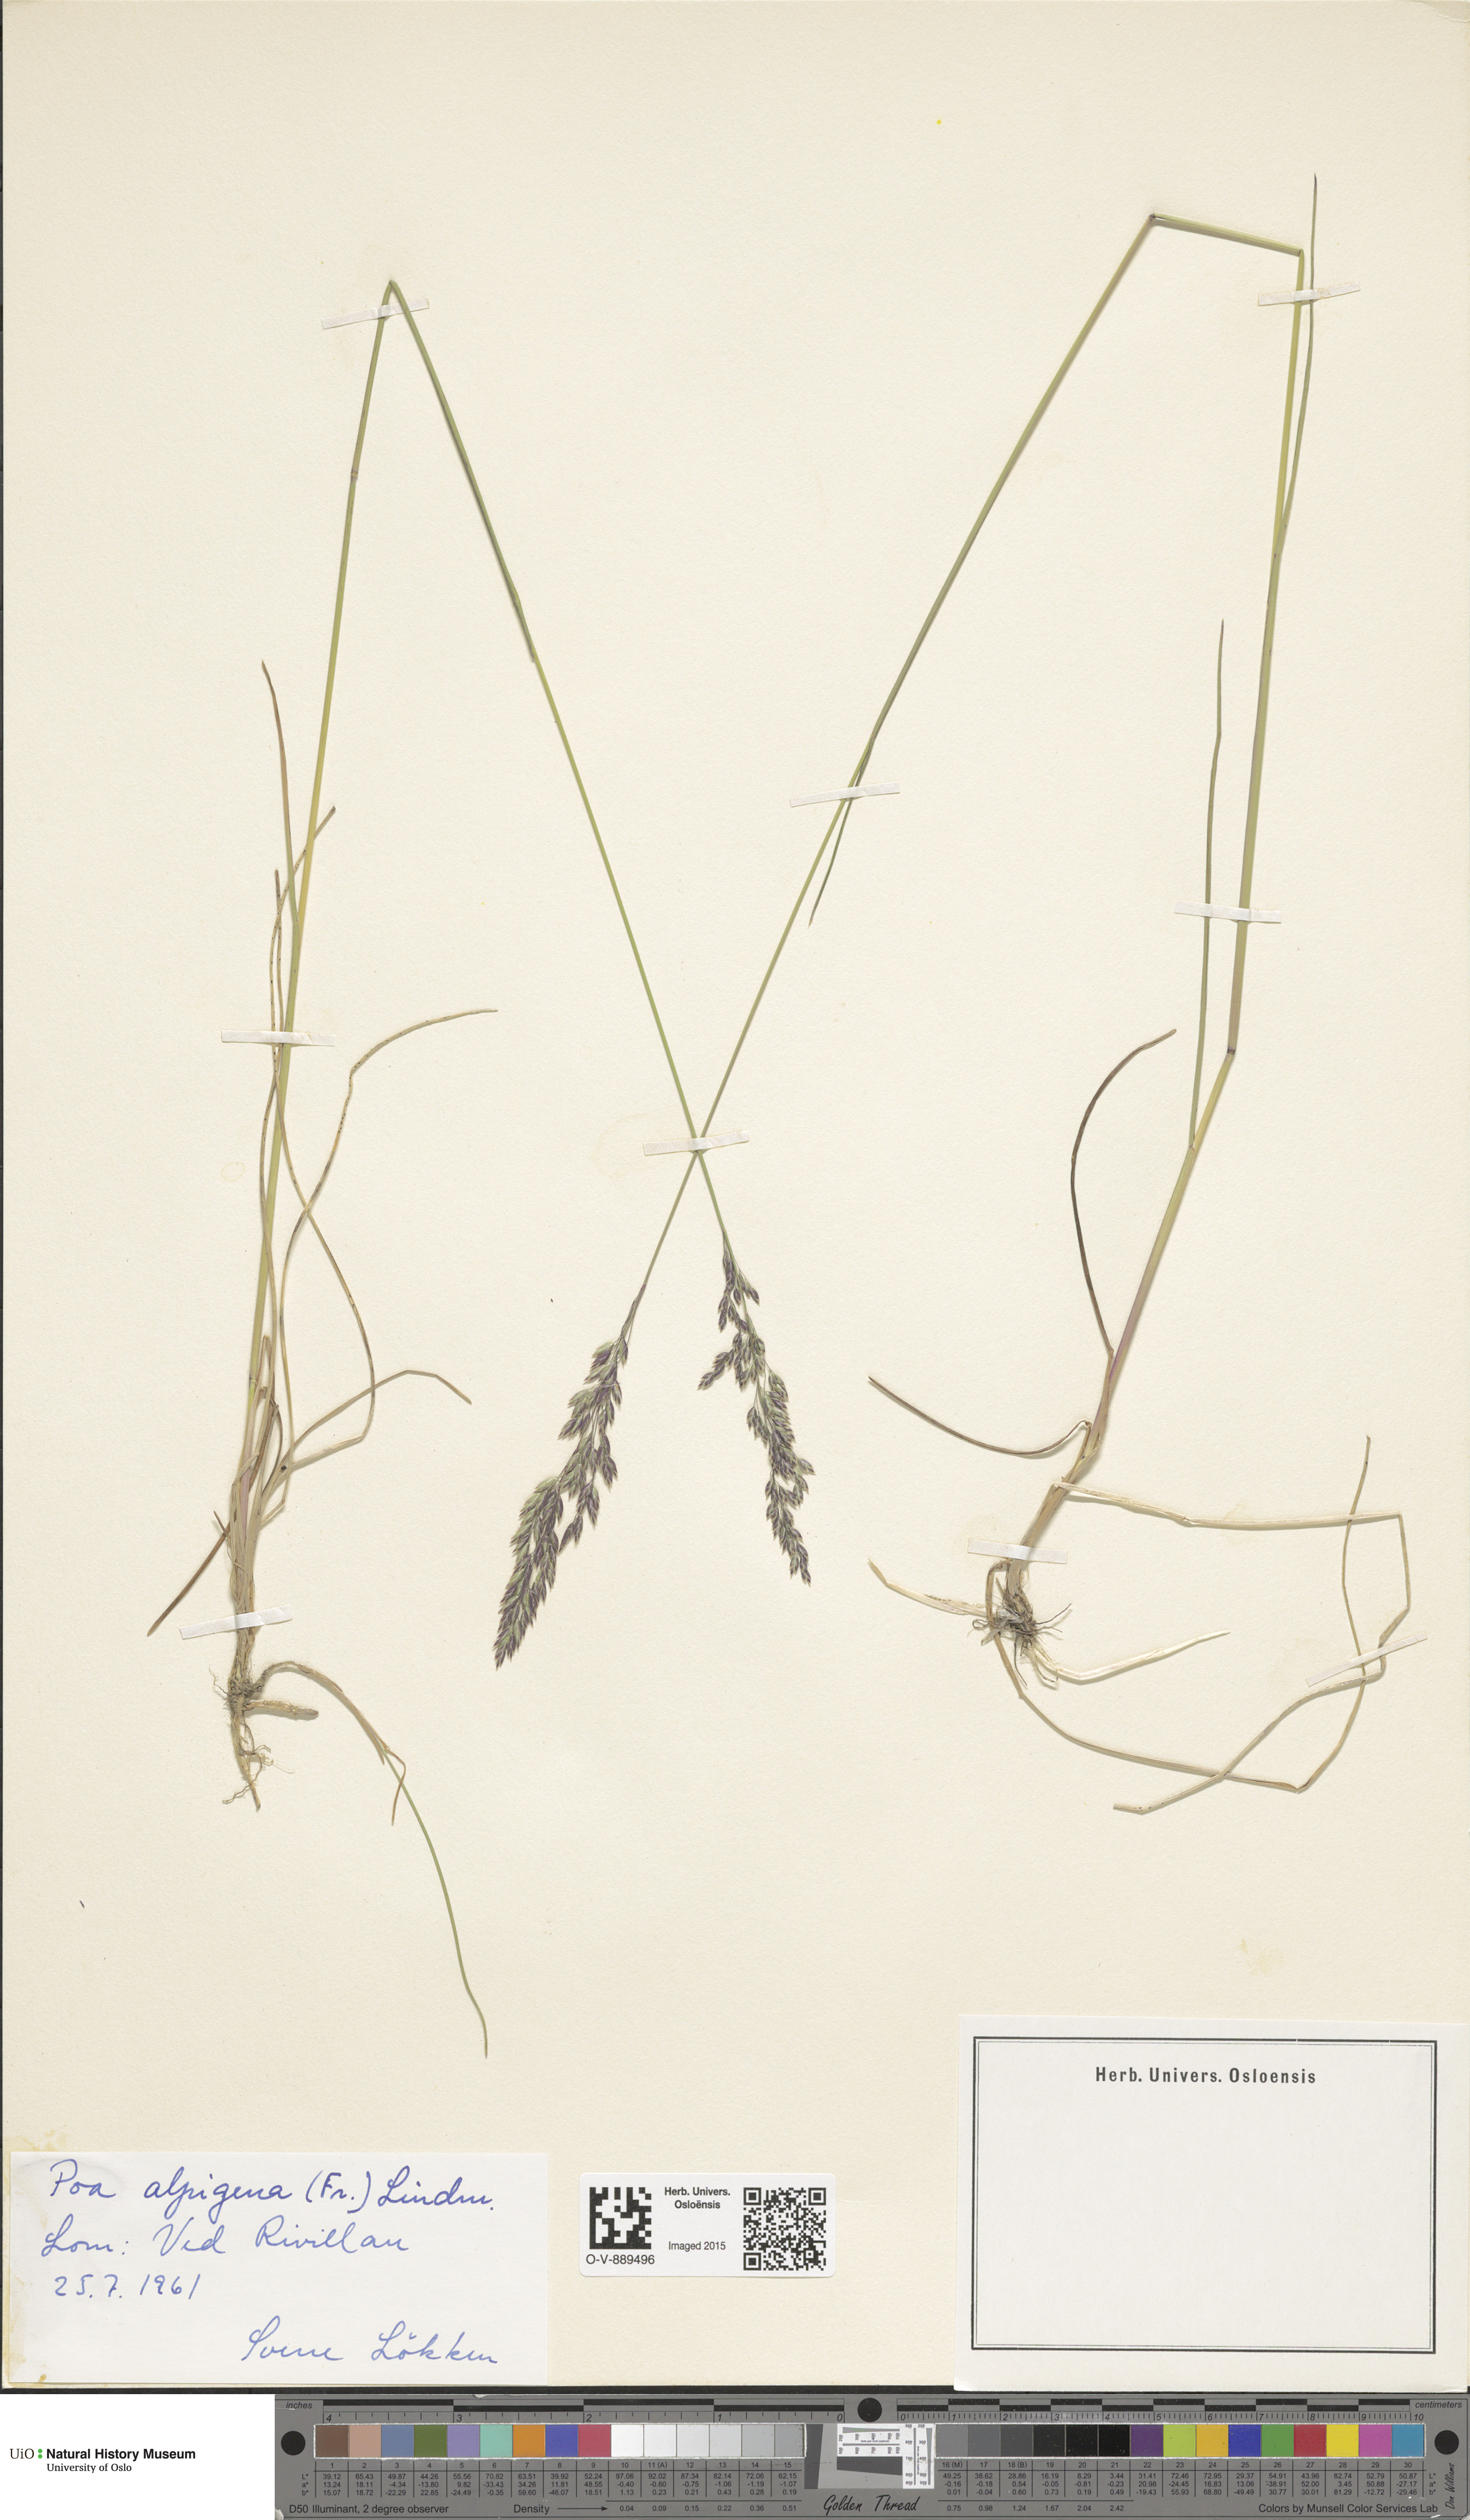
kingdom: Plantae
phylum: Tracheophyta
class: Liliopsida
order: Poales
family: Poaceae
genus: Poa
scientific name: Poa alpigena
